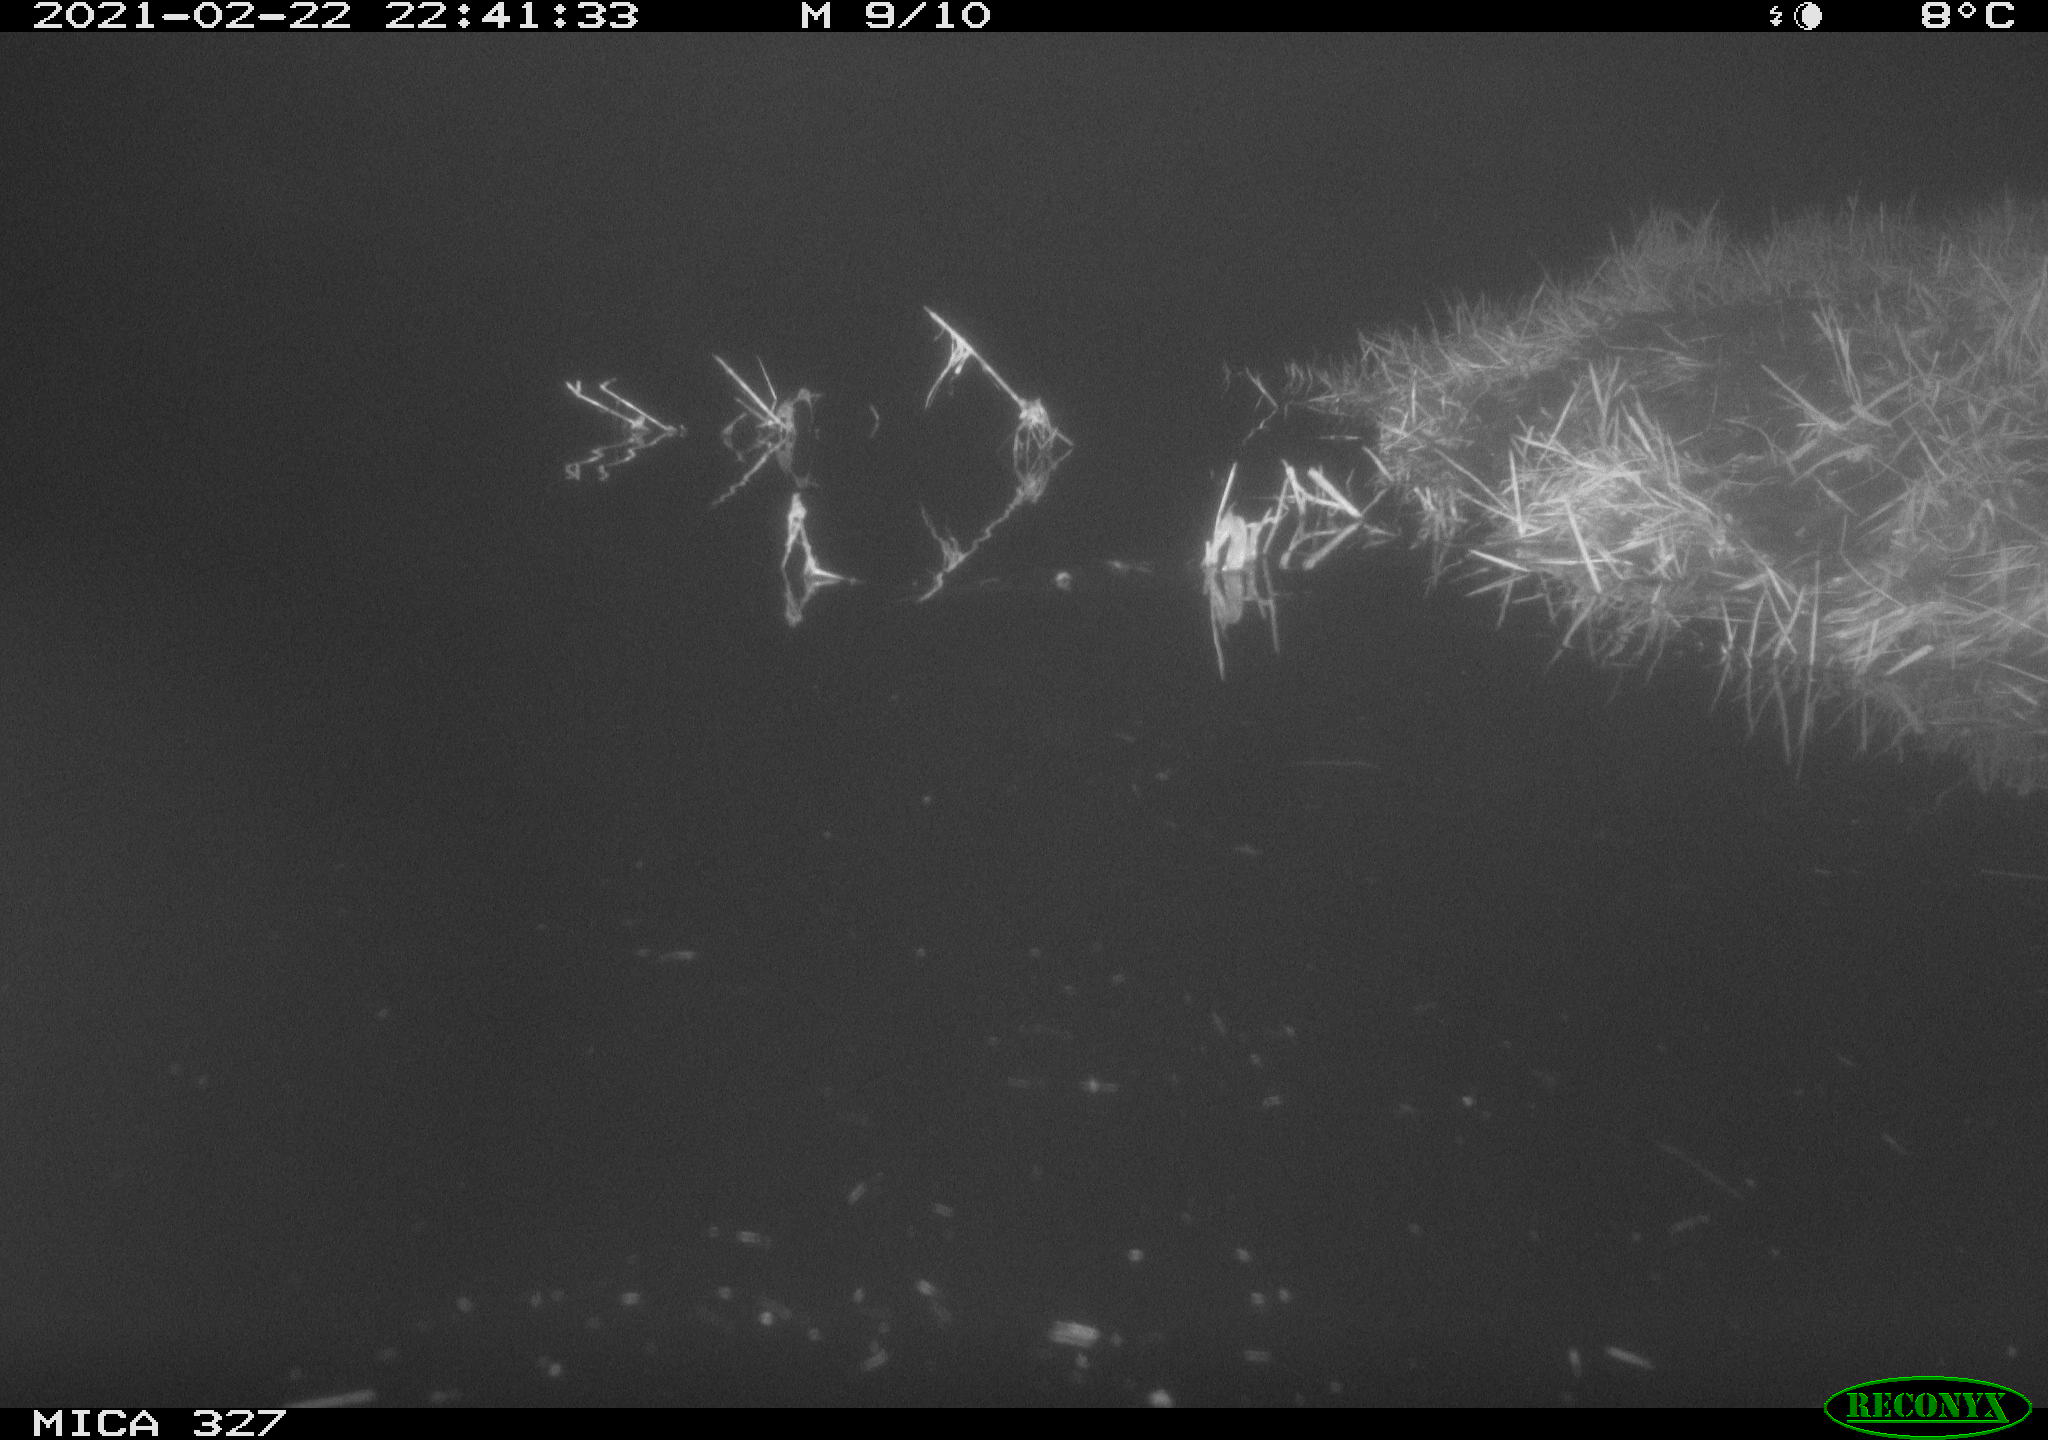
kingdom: Animalia
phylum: Chordata
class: Mammalia
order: Rodentia
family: Cricetidae
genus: Ondatra
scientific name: Ondatra zibethicus
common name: Muskrat
